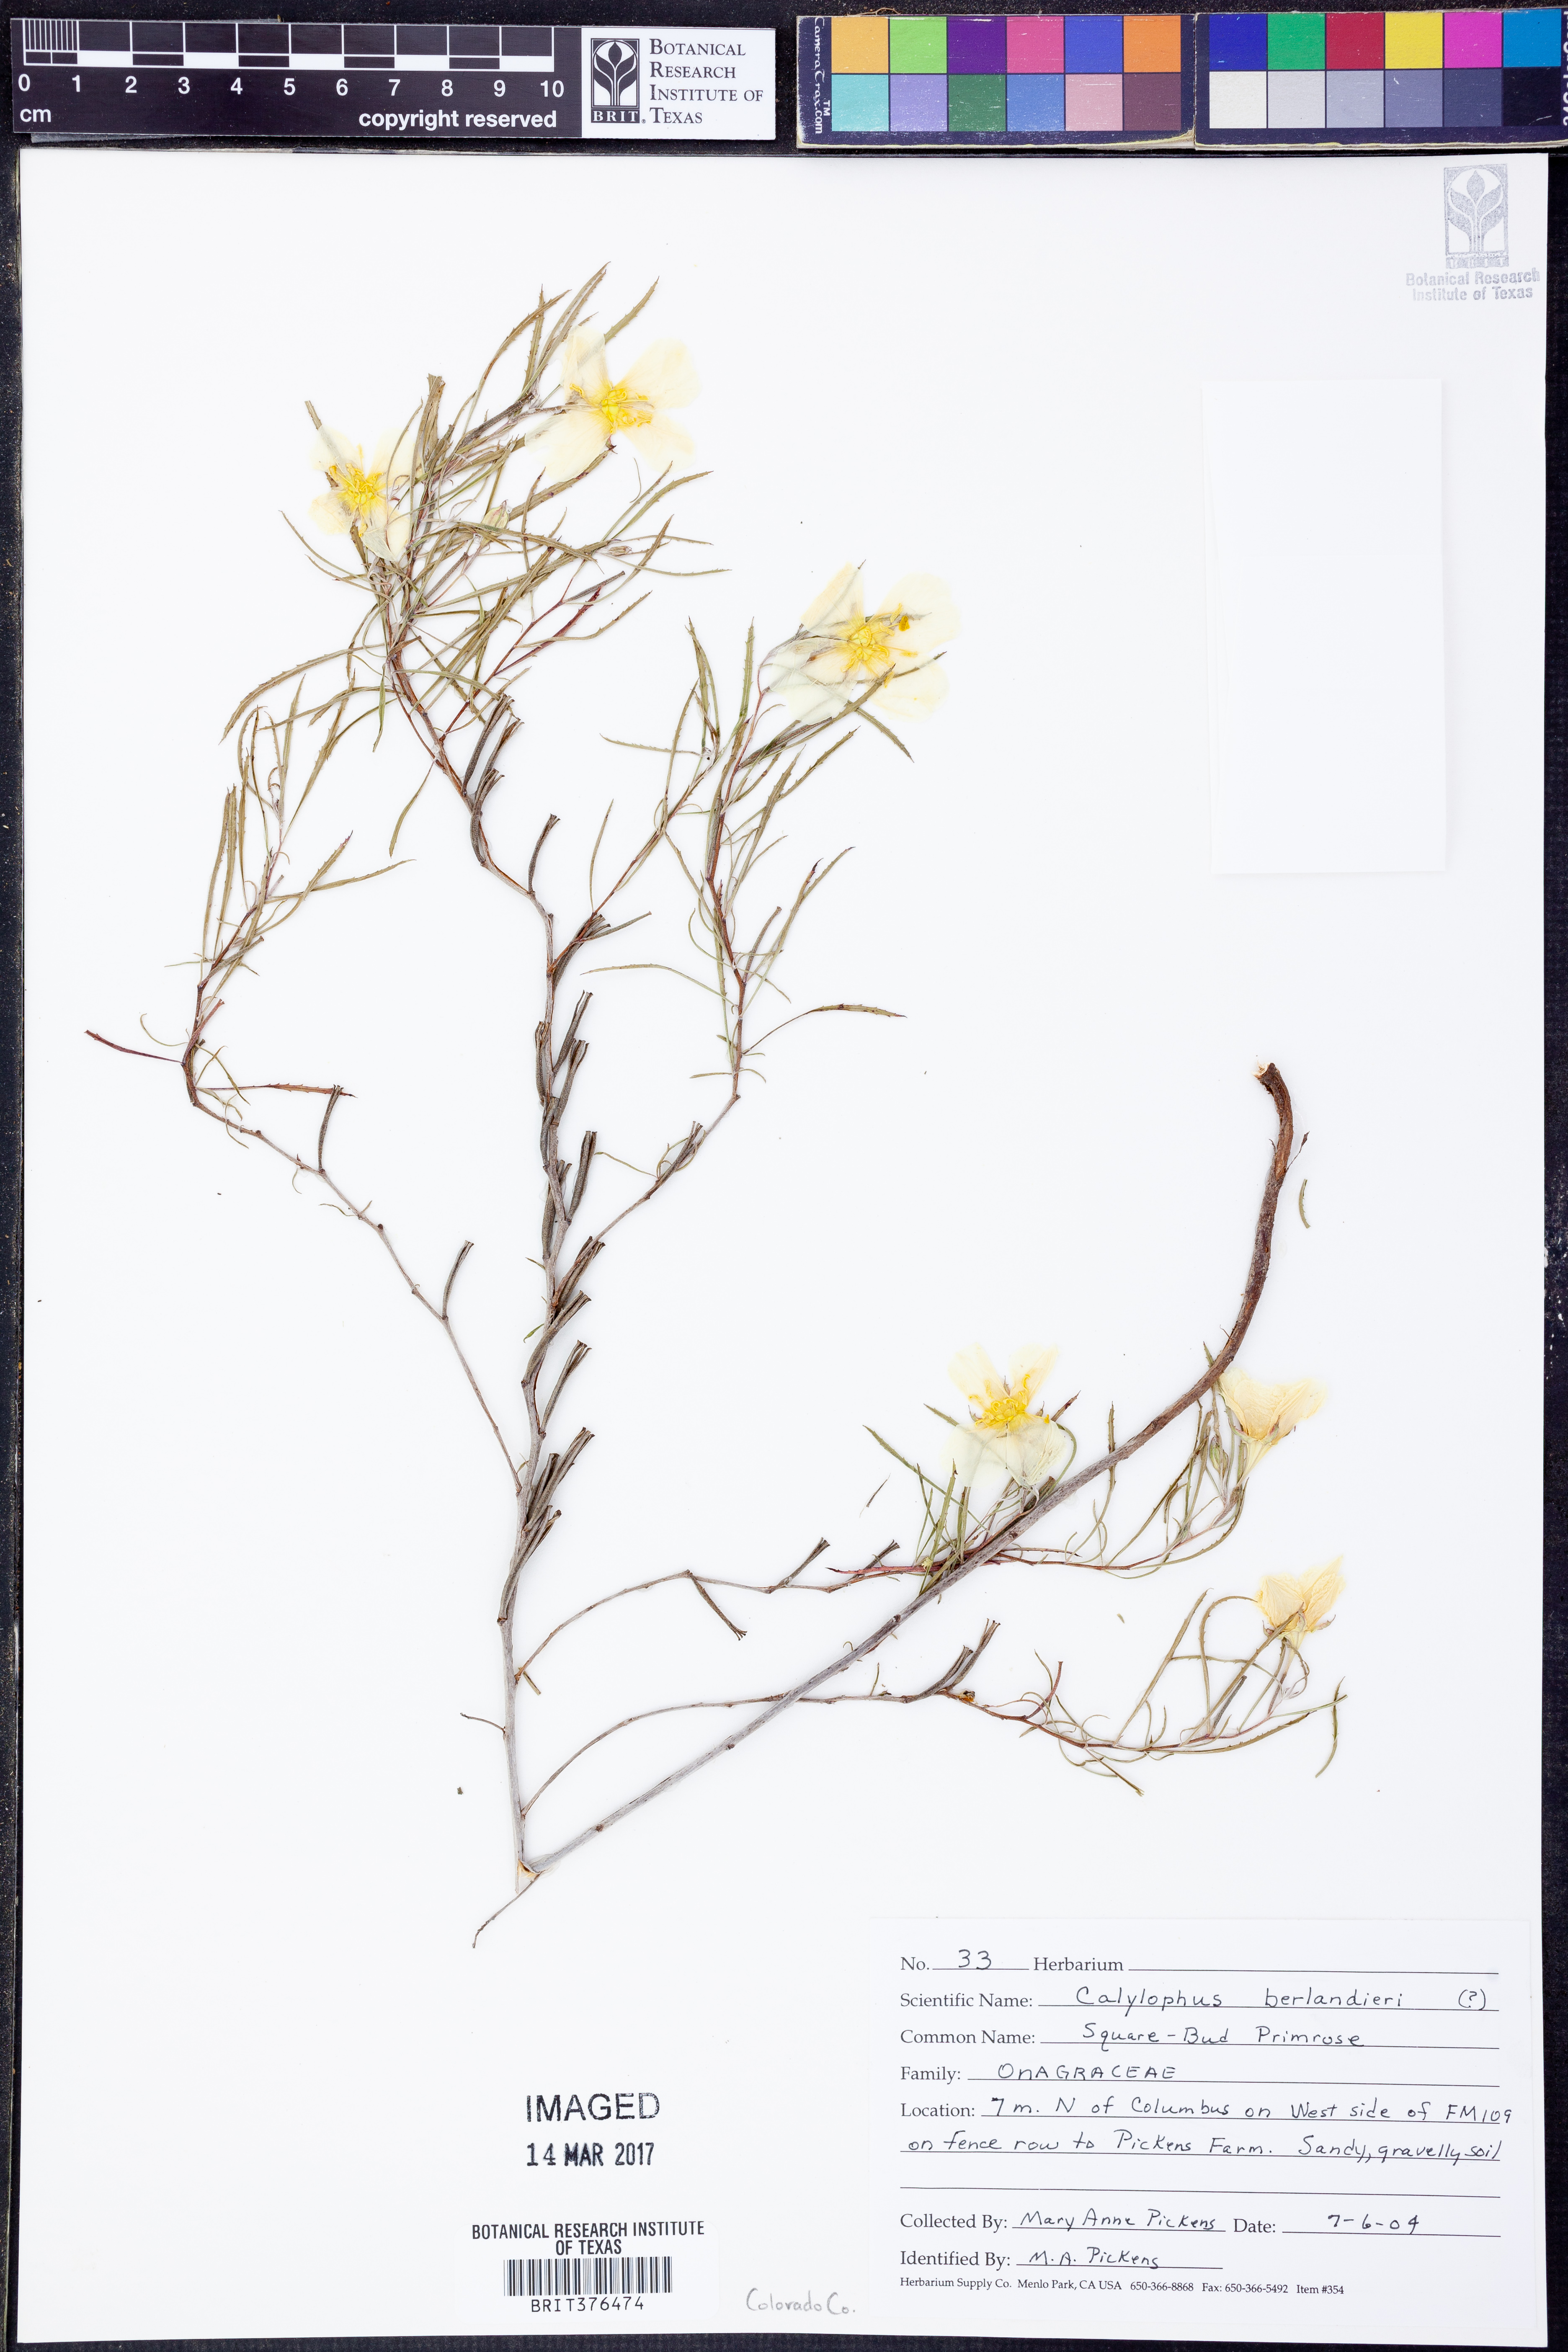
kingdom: Plantae
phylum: Tracheophyta
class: Magnoliopsida
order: Myrtales
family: Onagraceae
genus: Oenothera
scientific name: Oenothera capillifolia
